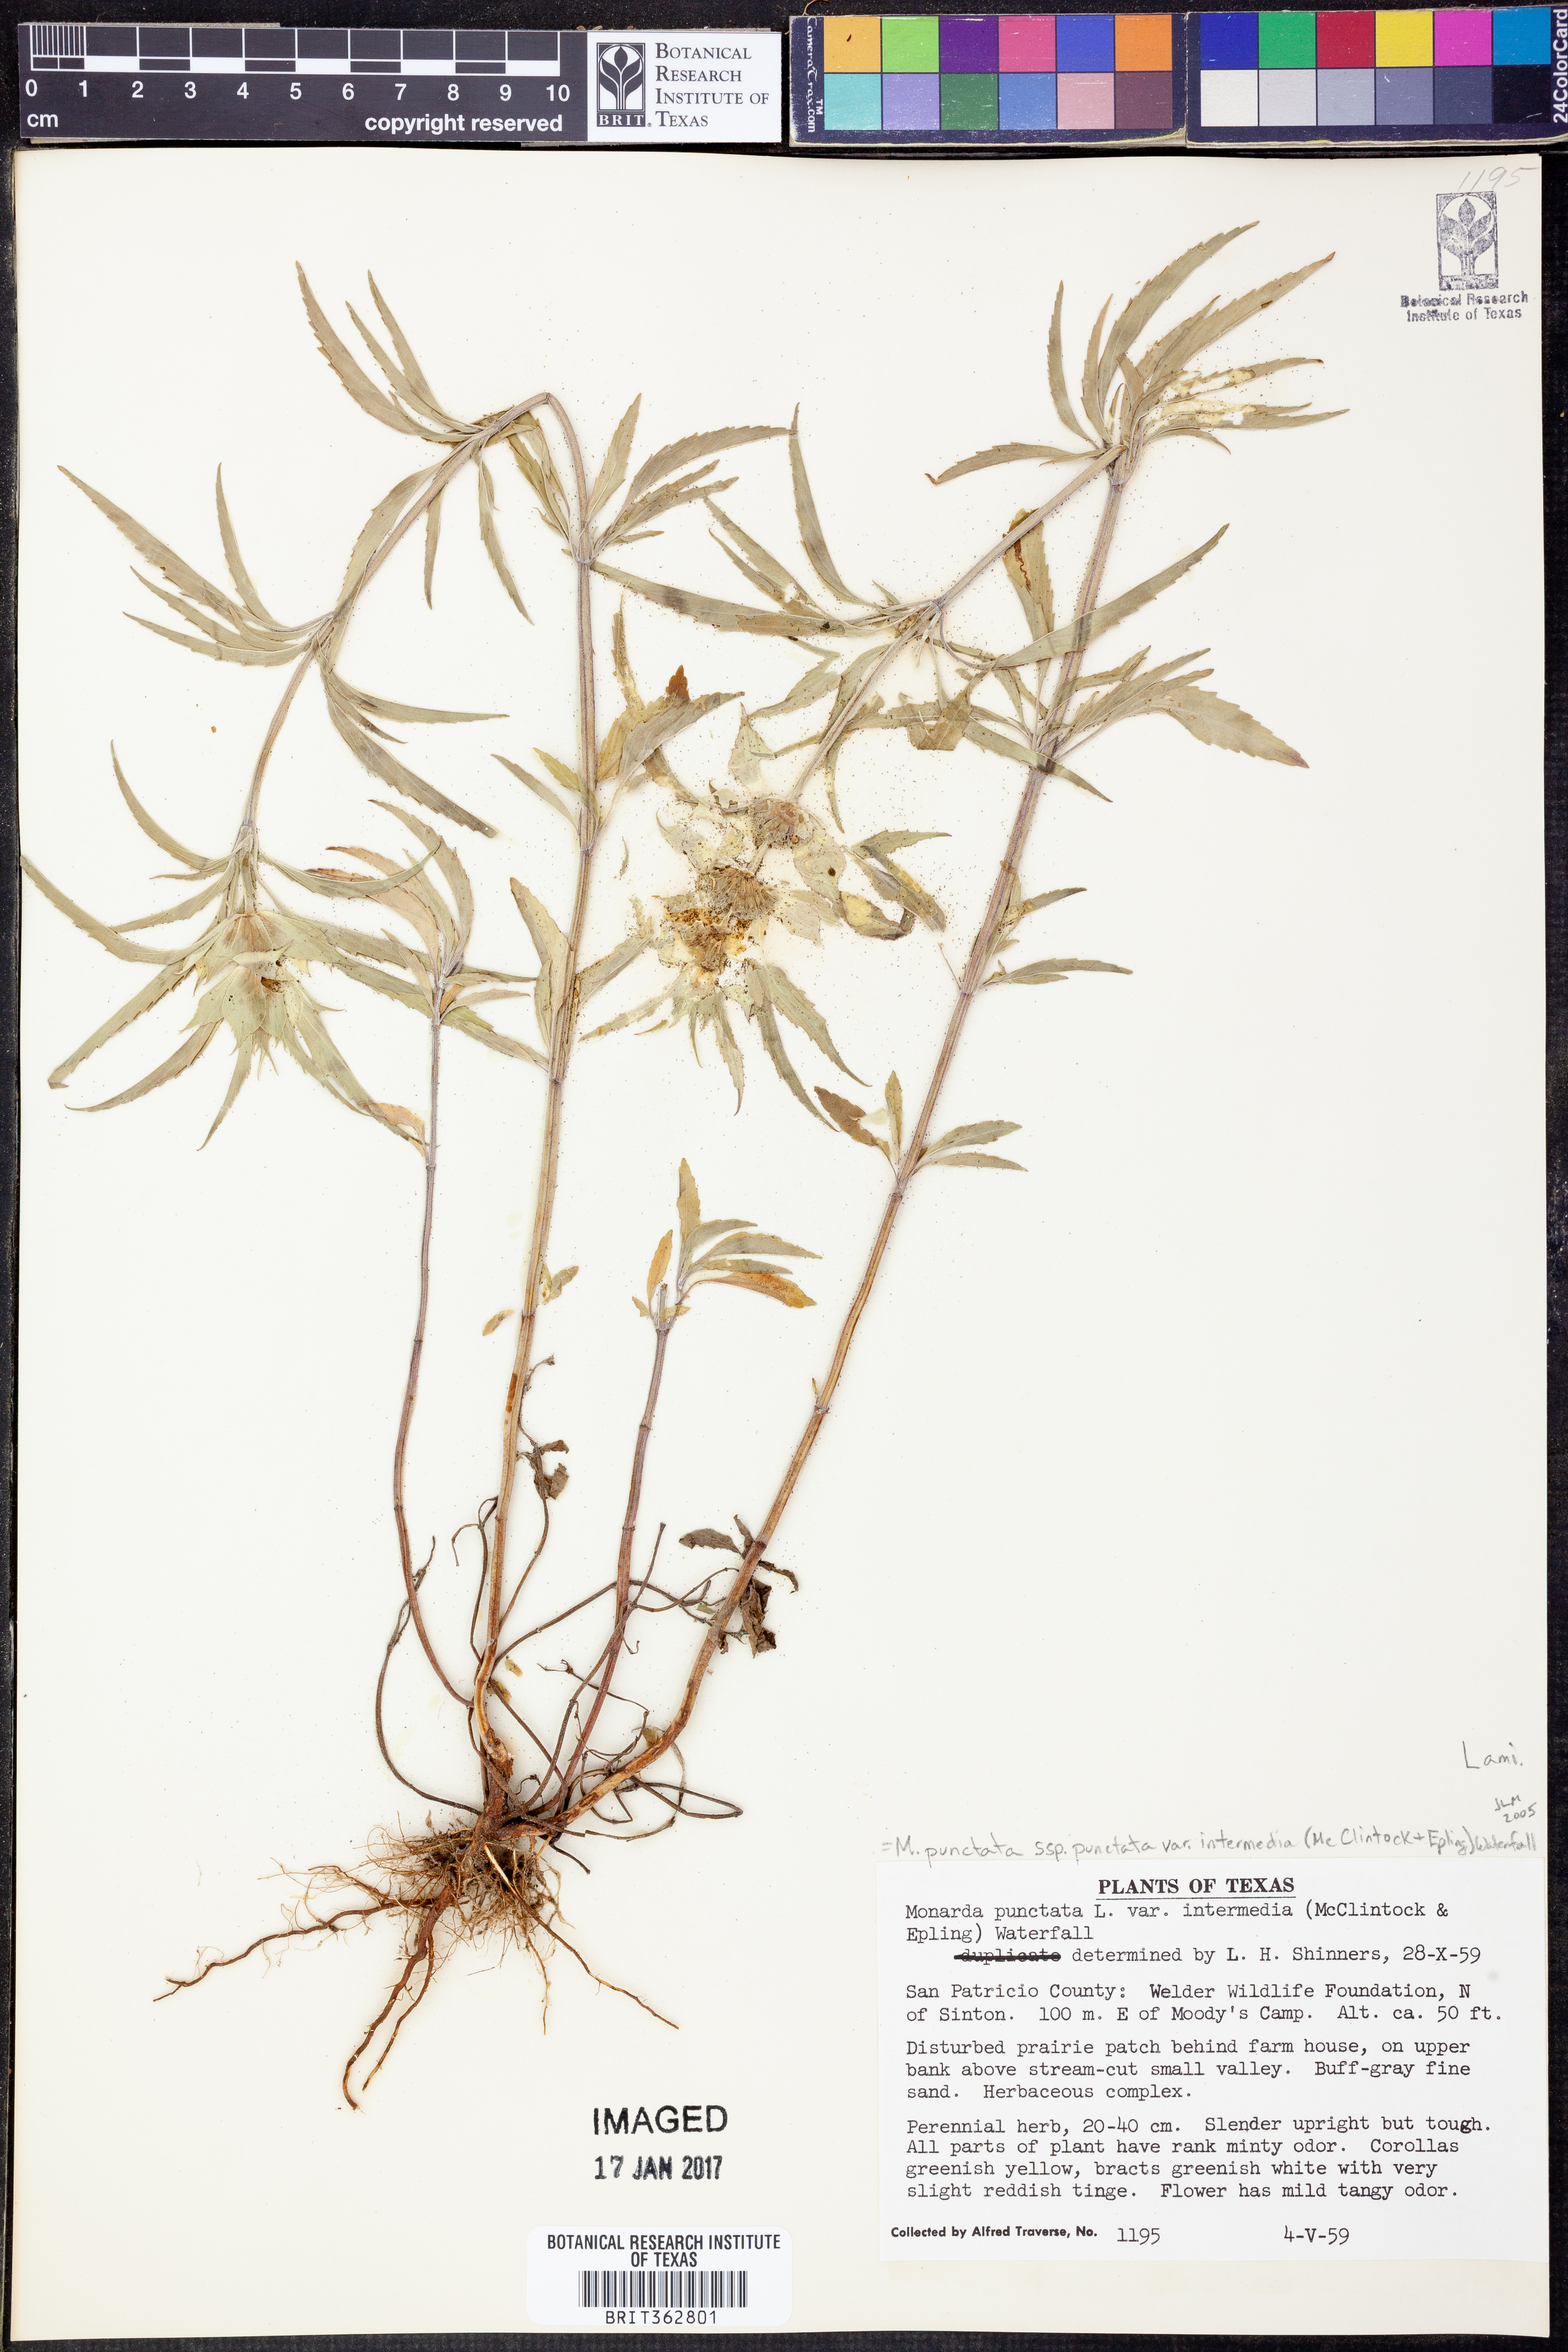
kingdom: Plantae
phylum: Tracheophyta
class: Magnoliopsida
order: Lamiales
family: Lamiaceae
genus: Monarda
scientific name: Monarda punctata
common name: Dotted monarda
